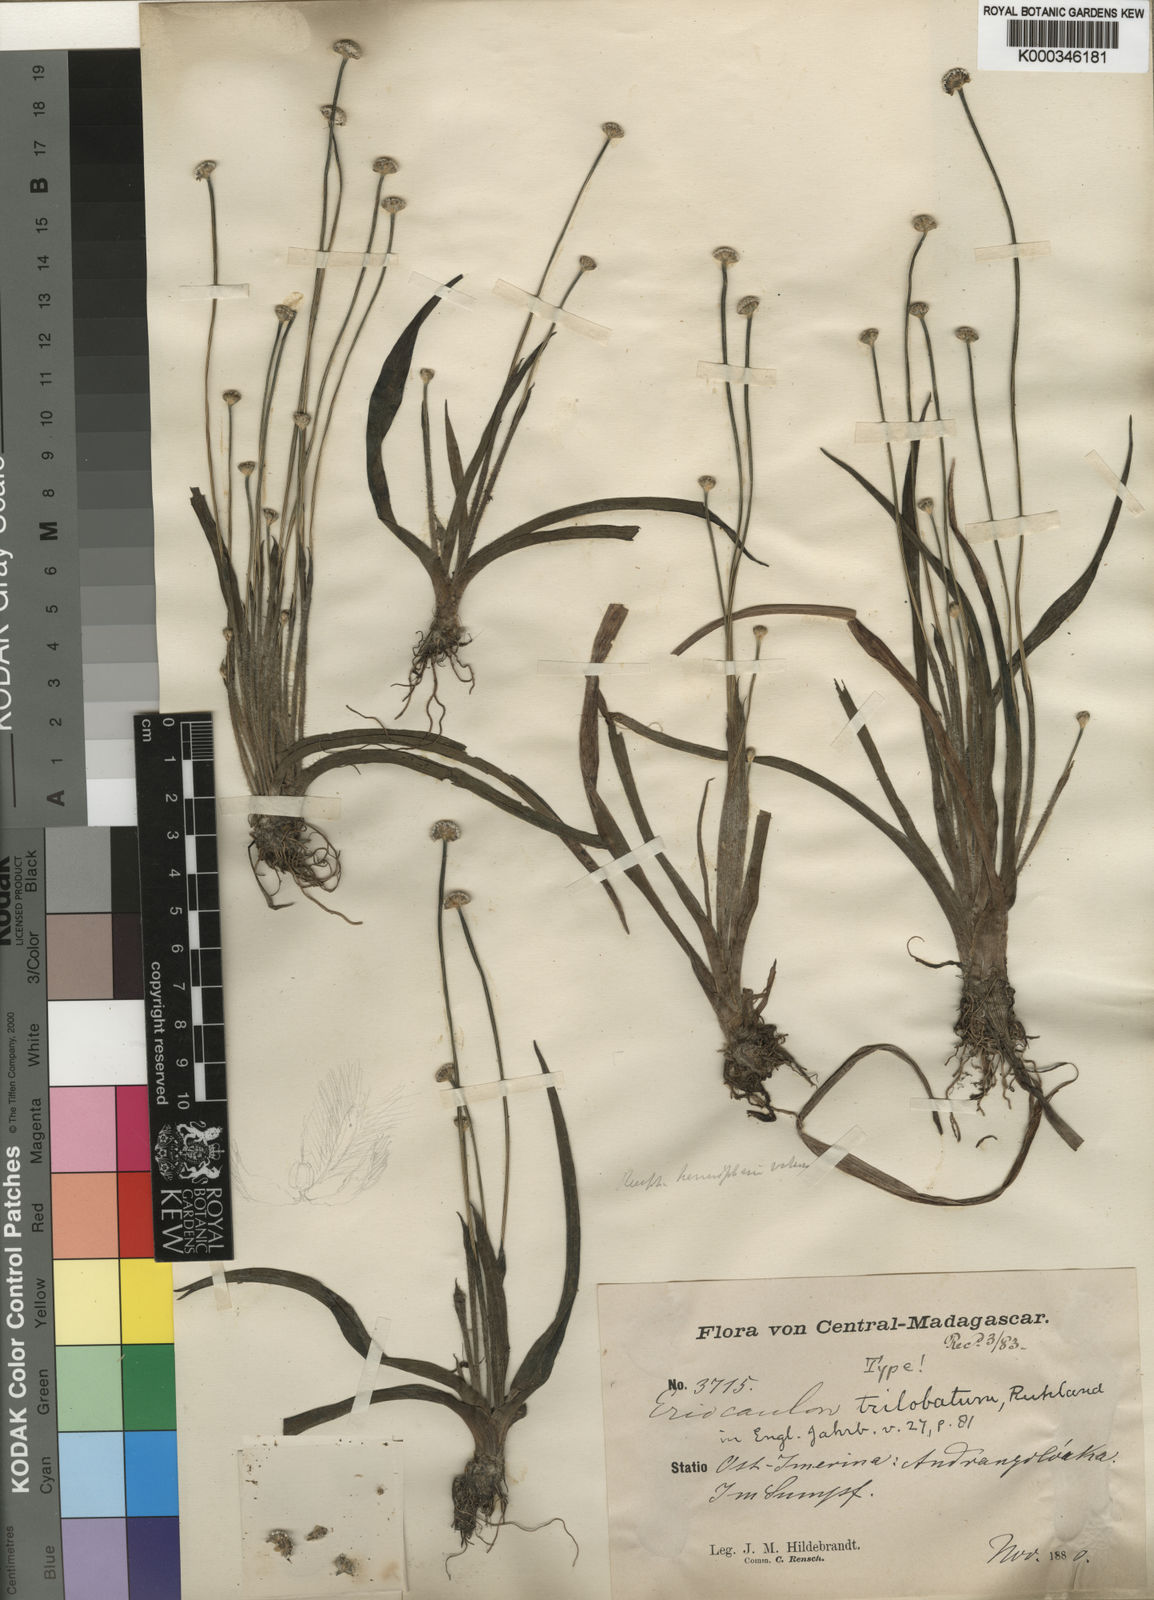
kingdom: Plantae
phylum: Tracheophyta
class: Liliopsida
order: Poales
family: Eriocaulaceae
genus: Eriocaulon
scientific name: Eriocaulon trilobatum
